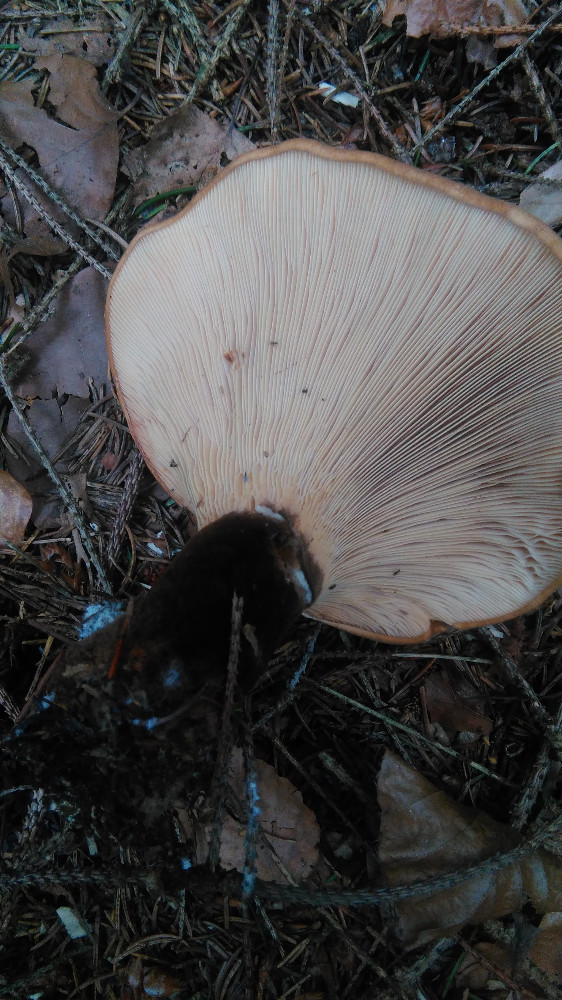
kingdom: Fungi
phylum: Basidiomycota
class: Agaricomycetes
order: Boletales
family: Tapinellaceae
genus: Tapinella
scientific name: Tapinella atrotomentosa
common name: sortfiltet viftesvamp
